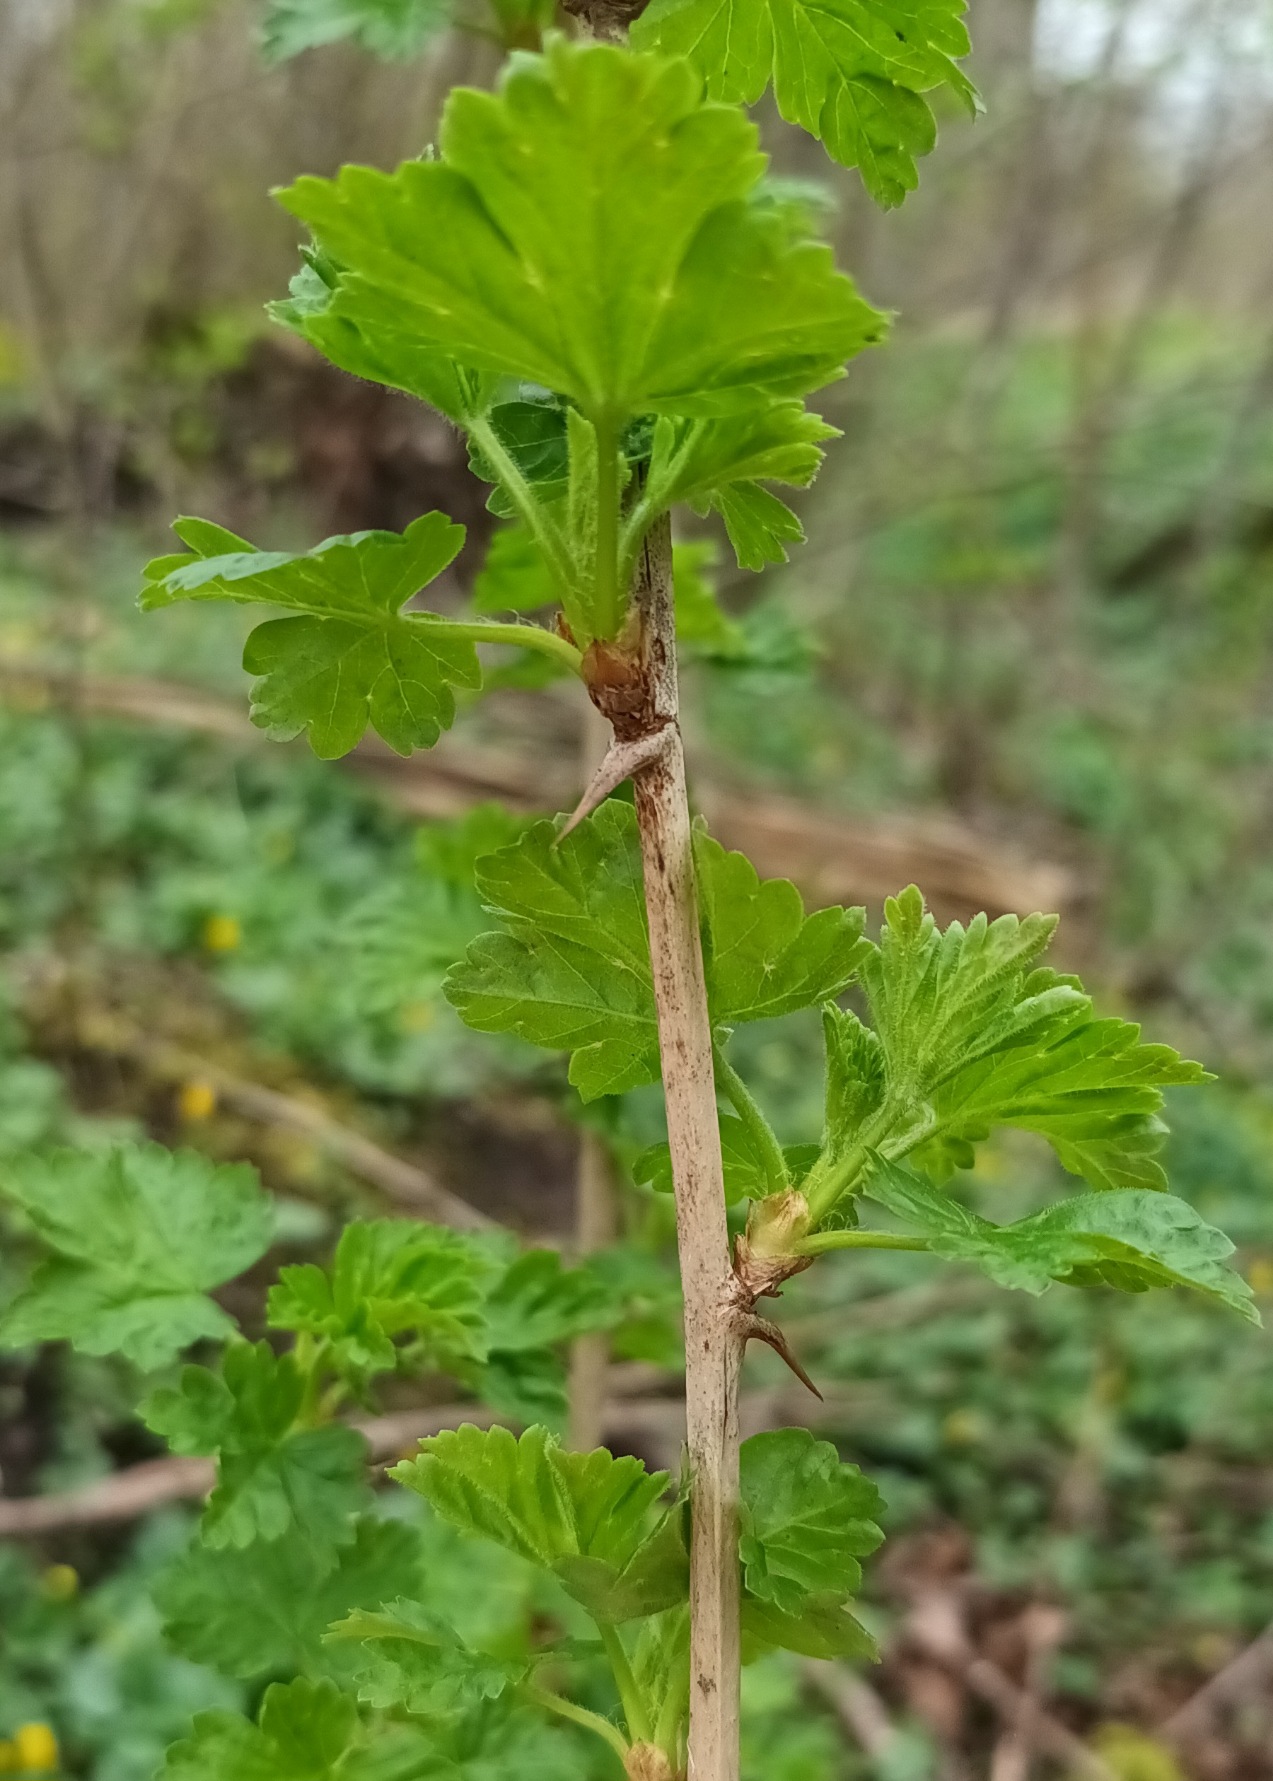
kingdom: Plantae
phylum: Tracheophyta
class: Magnoliopsida
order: Saxifragales
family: Grossulariaceae
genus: Ribes
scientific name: Ribes uva-crispa
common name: Stikkelsbær
